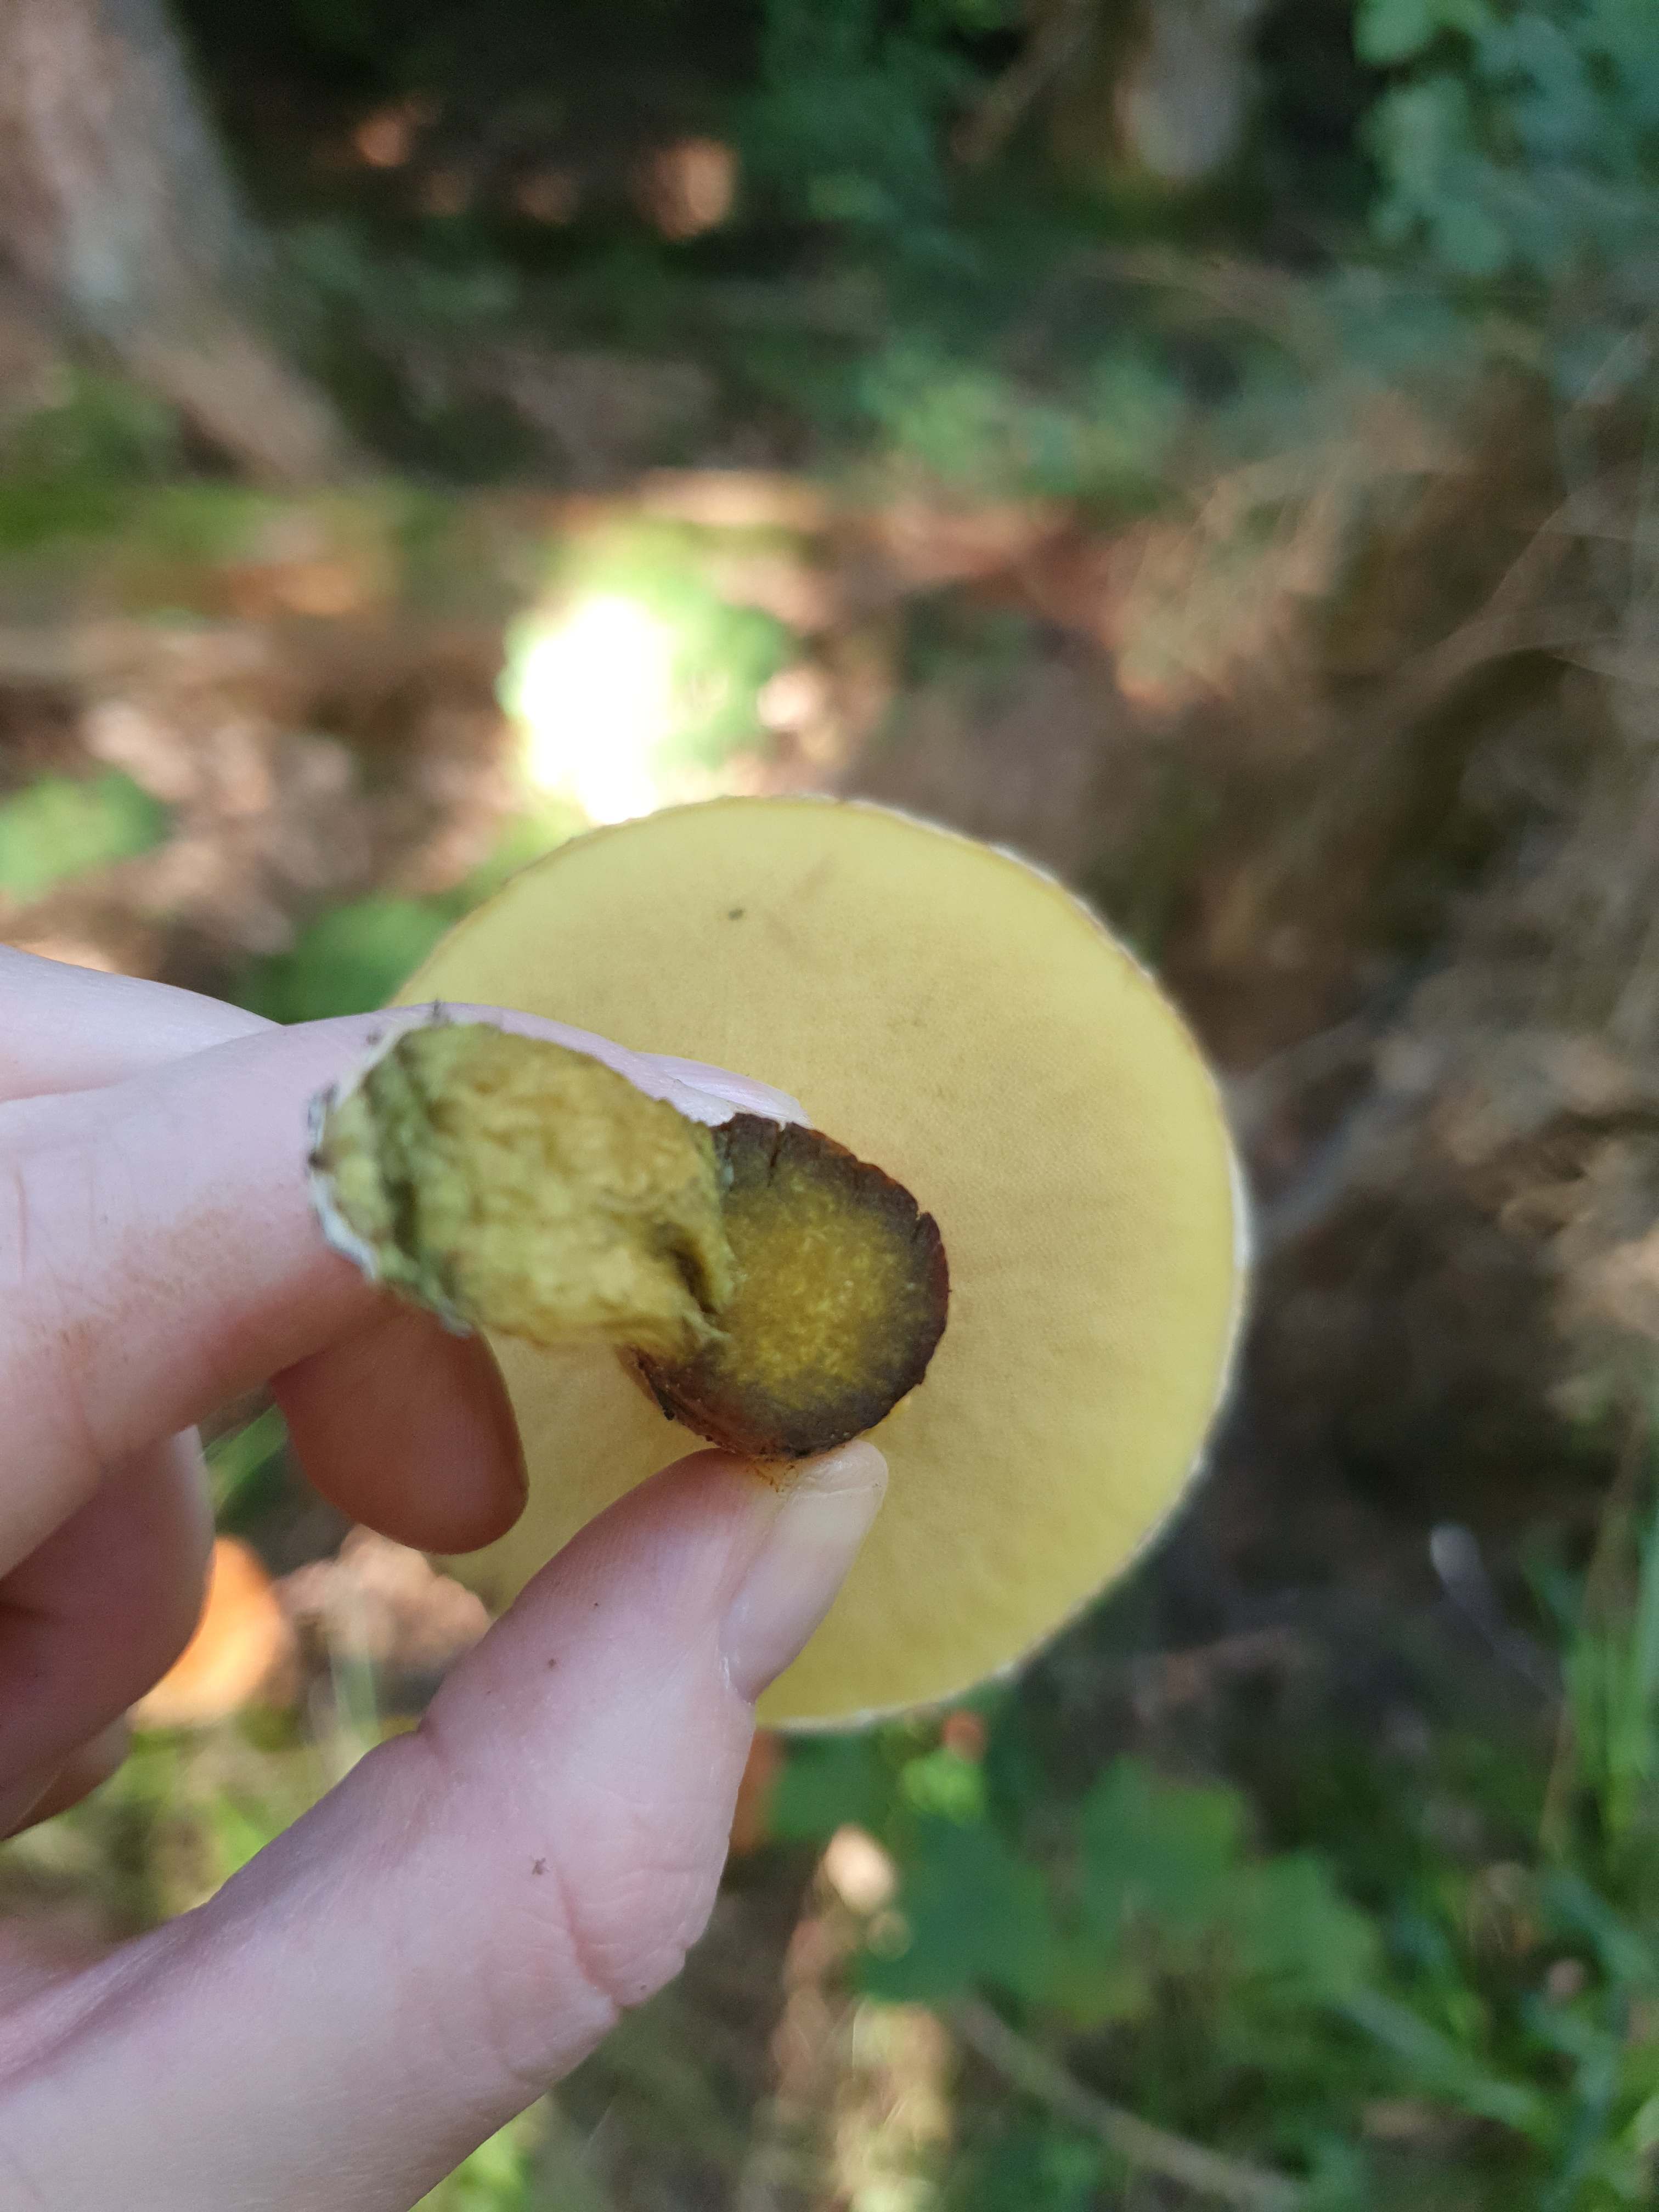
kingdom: Fungi
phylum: Basidiomycota
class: Agaricomycetes
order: Boletales
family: Suillaceae
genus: Suillus
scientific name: Suillus grevillei
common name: lærke-slimrørhat
